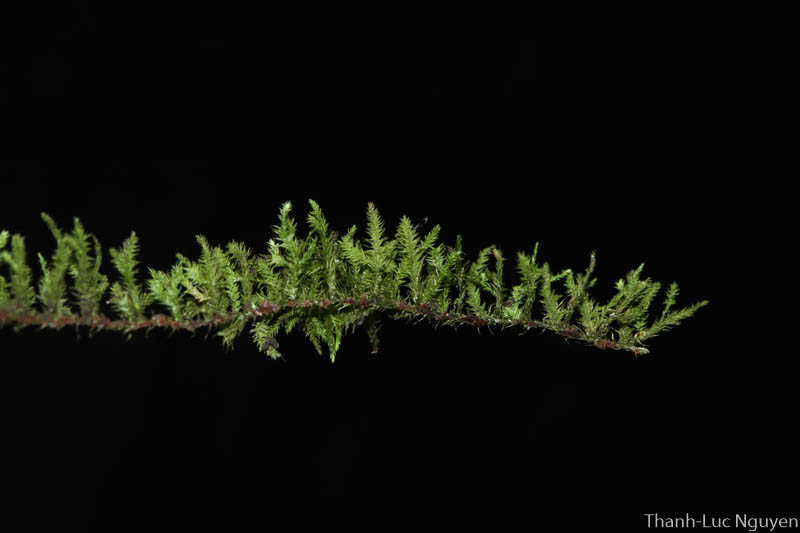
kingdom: Plantae
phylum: Bryophyta
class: Bryopsida
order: Hypnales
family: Brachytheciaceae
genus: Claopodium
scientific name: Claopodium
